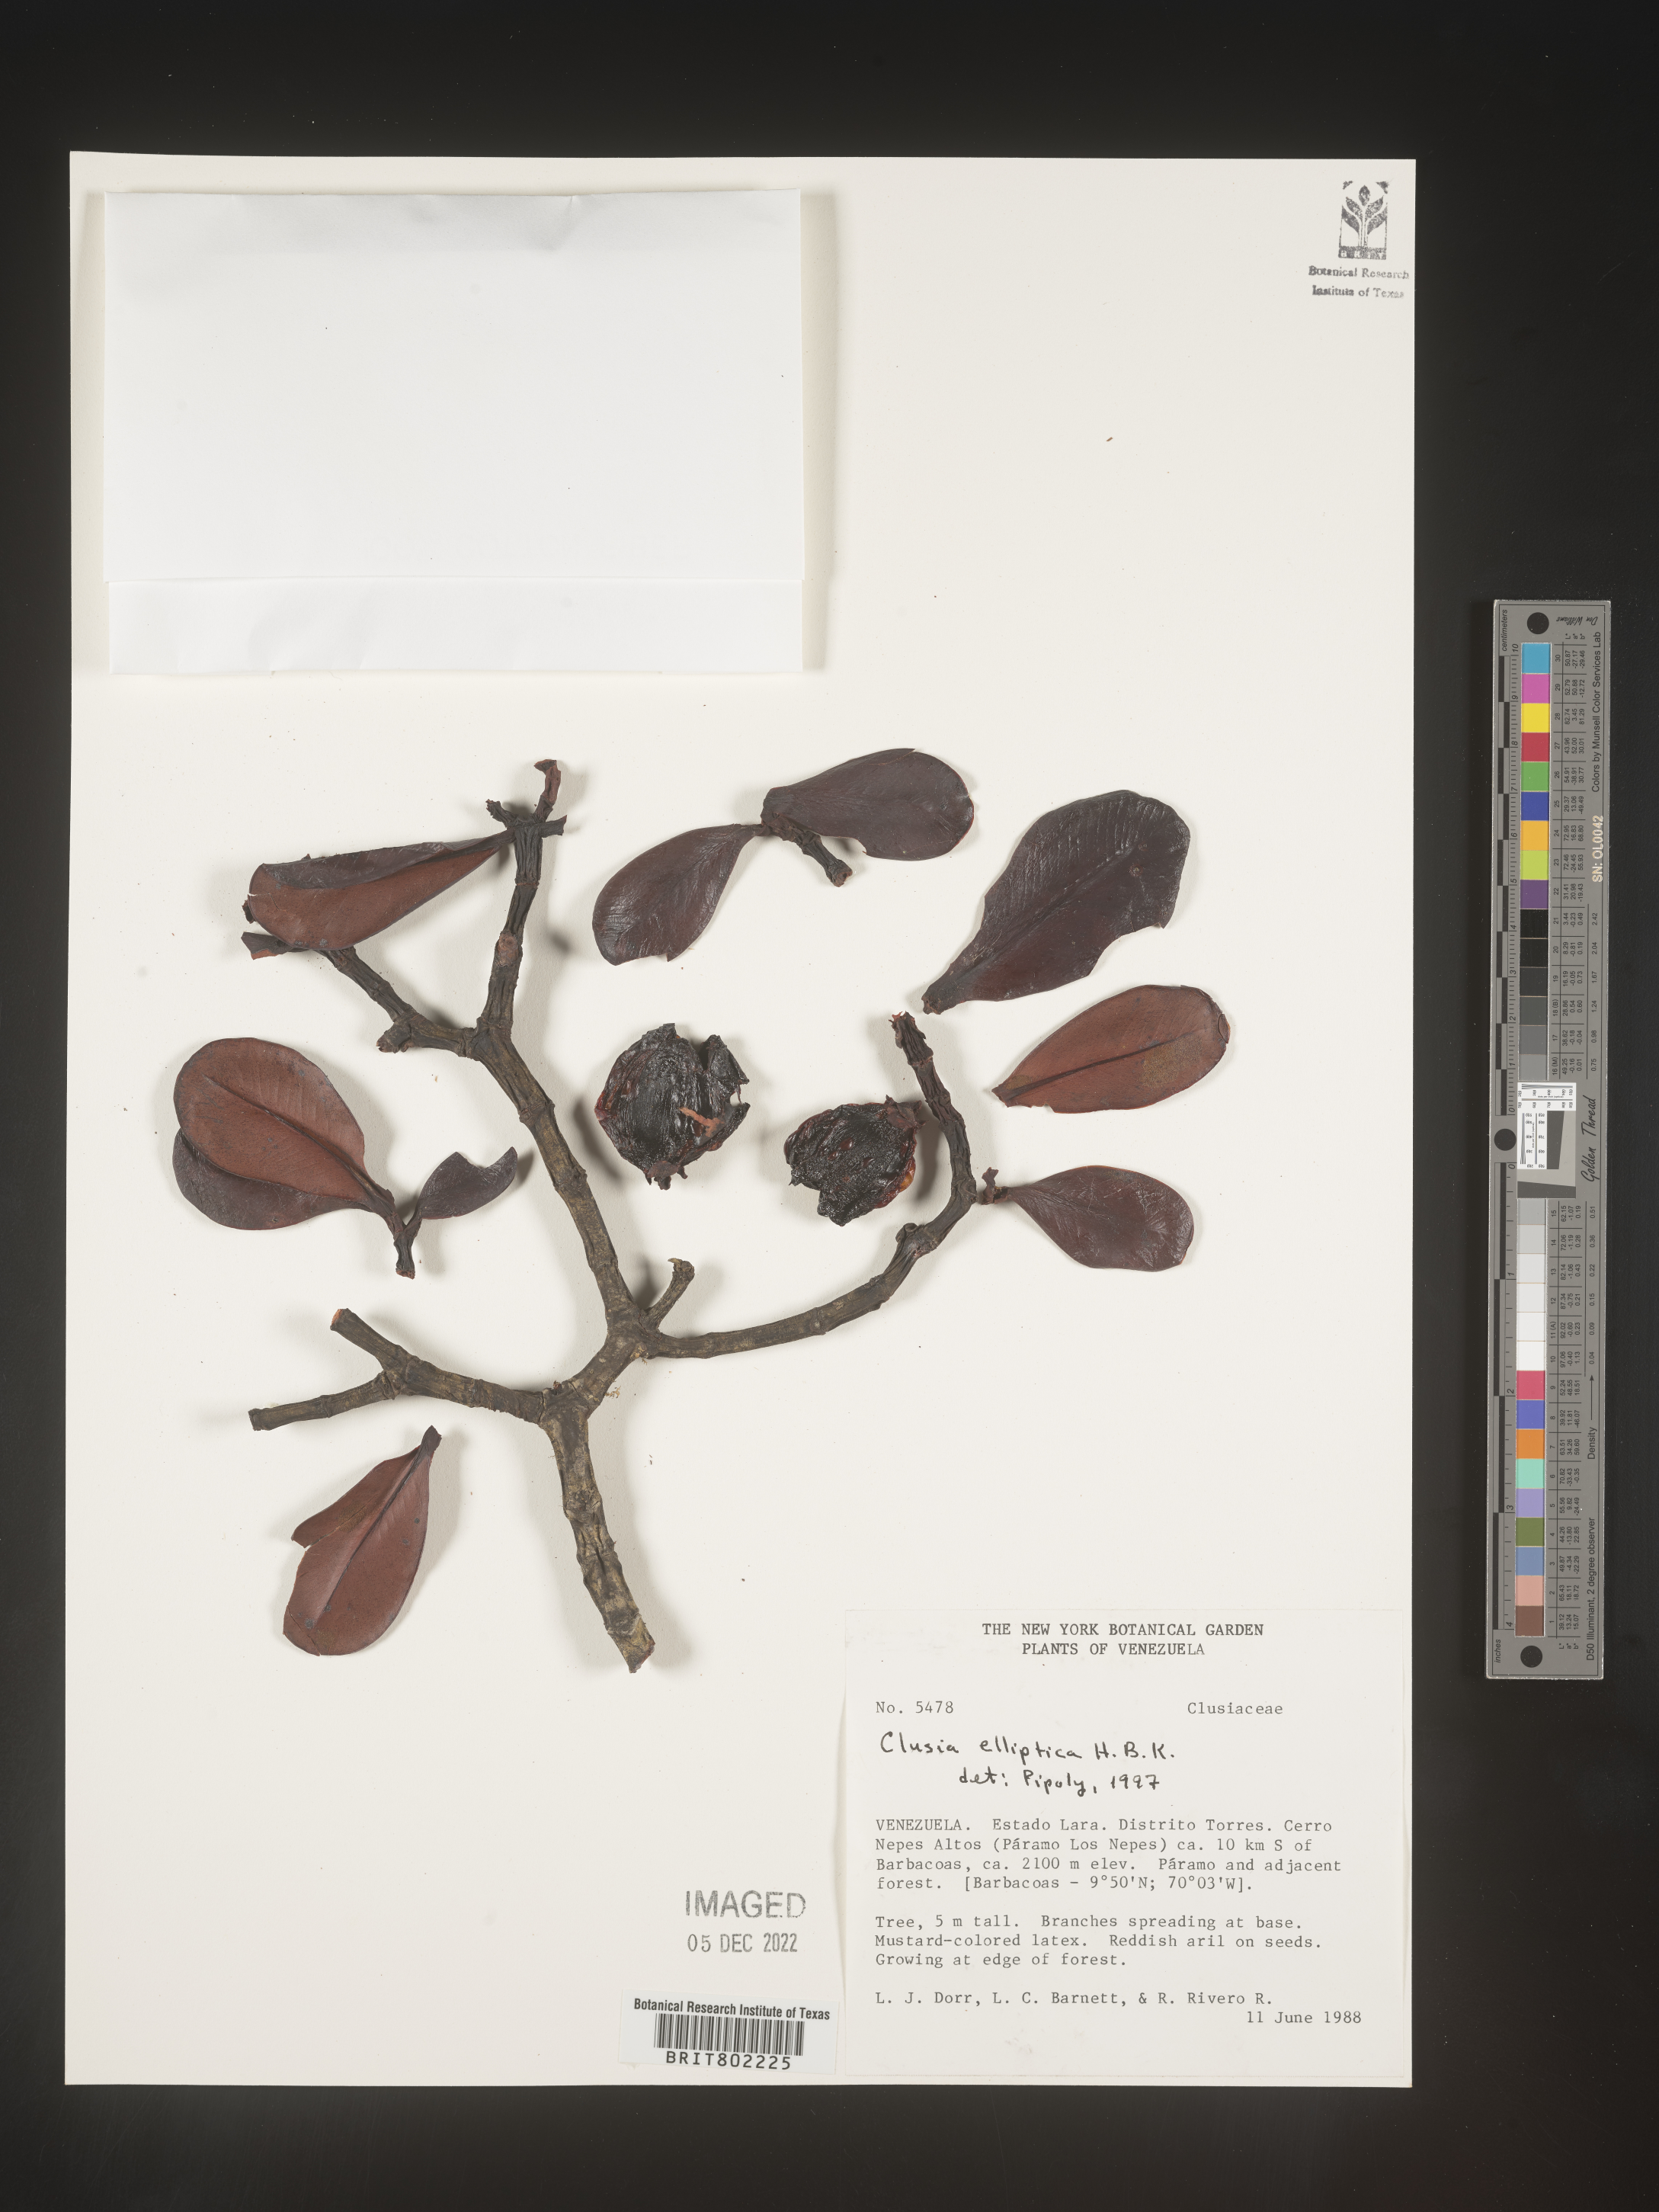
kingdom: Plantae
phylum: Tracheophyta
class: Magnoliopsida
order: Malpighiales
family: Clusiaceae
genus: Clusia
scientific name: Clusia elliptica
